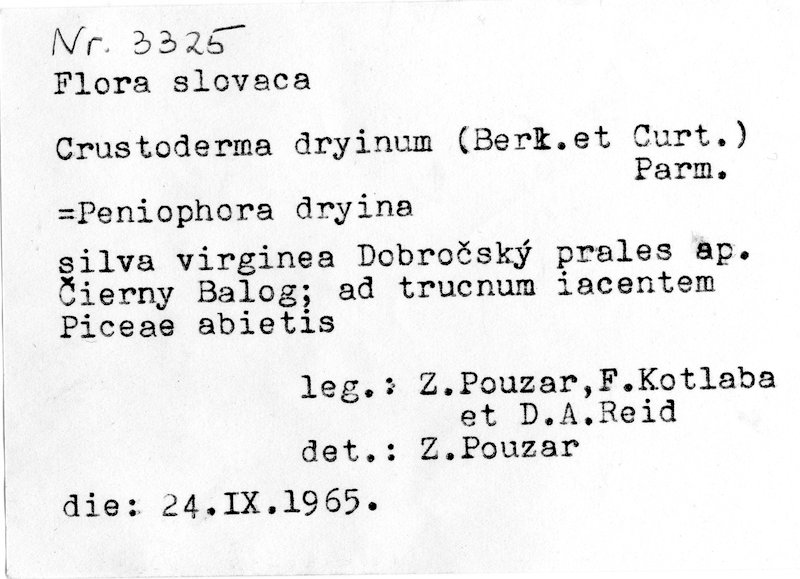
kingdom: Fungi
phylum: Basidiomycota
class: Agaricomycetes
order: Polyporales
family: Sparassidaceae
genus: Crustoderma
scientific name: Crustoderma dryinum
